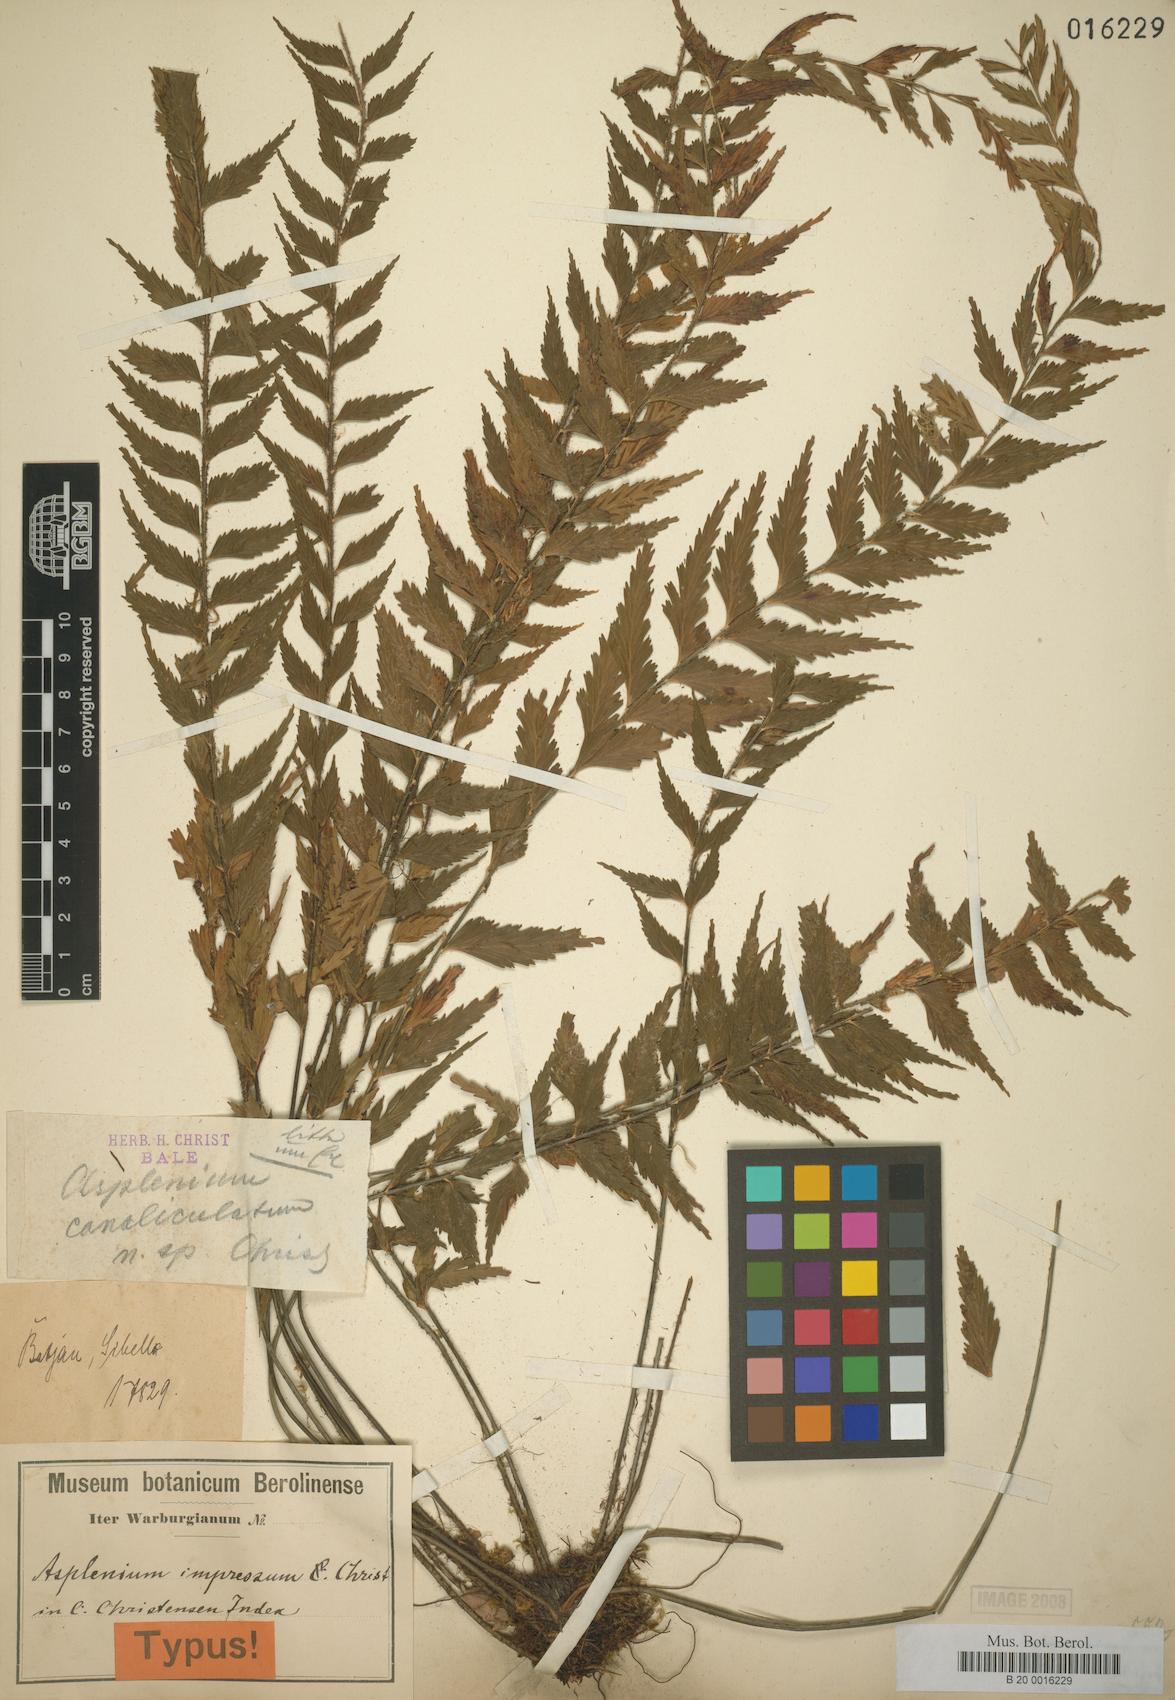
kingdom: Plantae
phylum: Tracheophyta
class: Polypodiopsida
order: Polypodiales
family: Aspleniaceae
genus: Asplenium
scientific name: Asplenium simile
